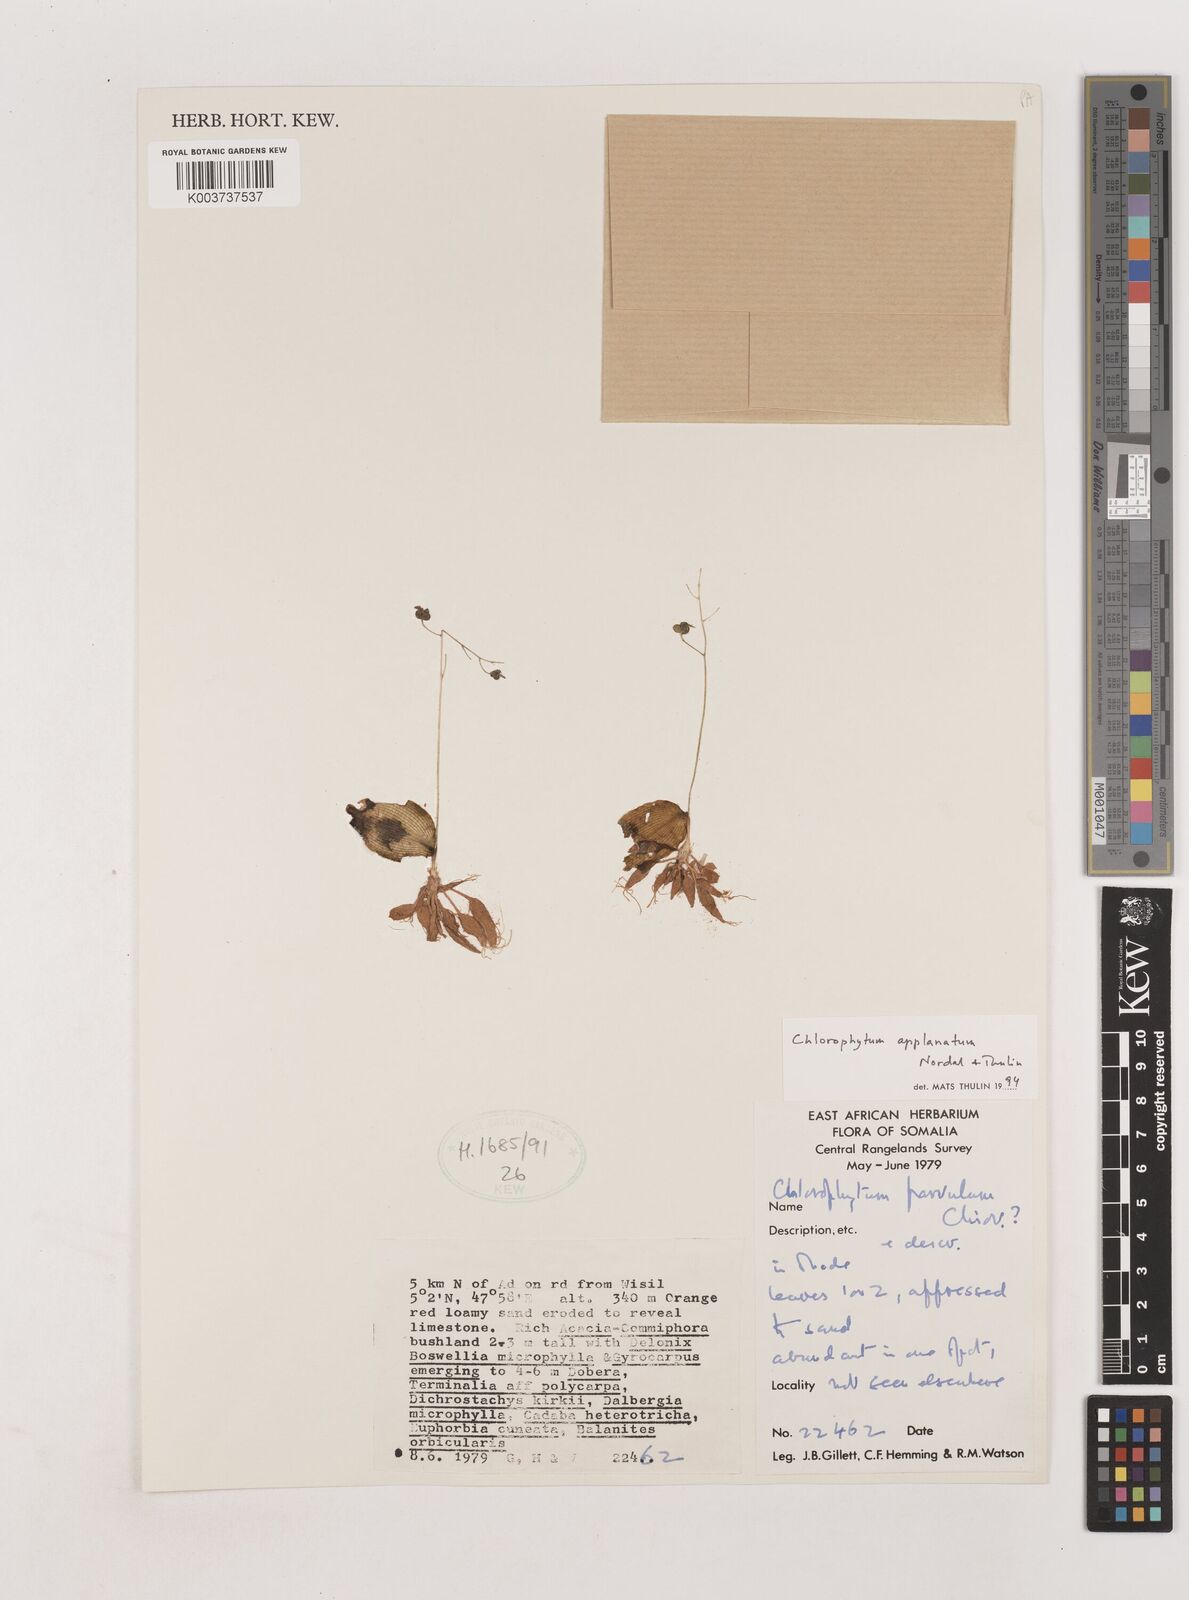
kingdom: Plantae
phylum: Tracheophyta
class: Liliopsida
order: Asparagales
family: Asparagaceae
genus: Chlorophytum
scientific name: Chlorophytum appendiculatum
